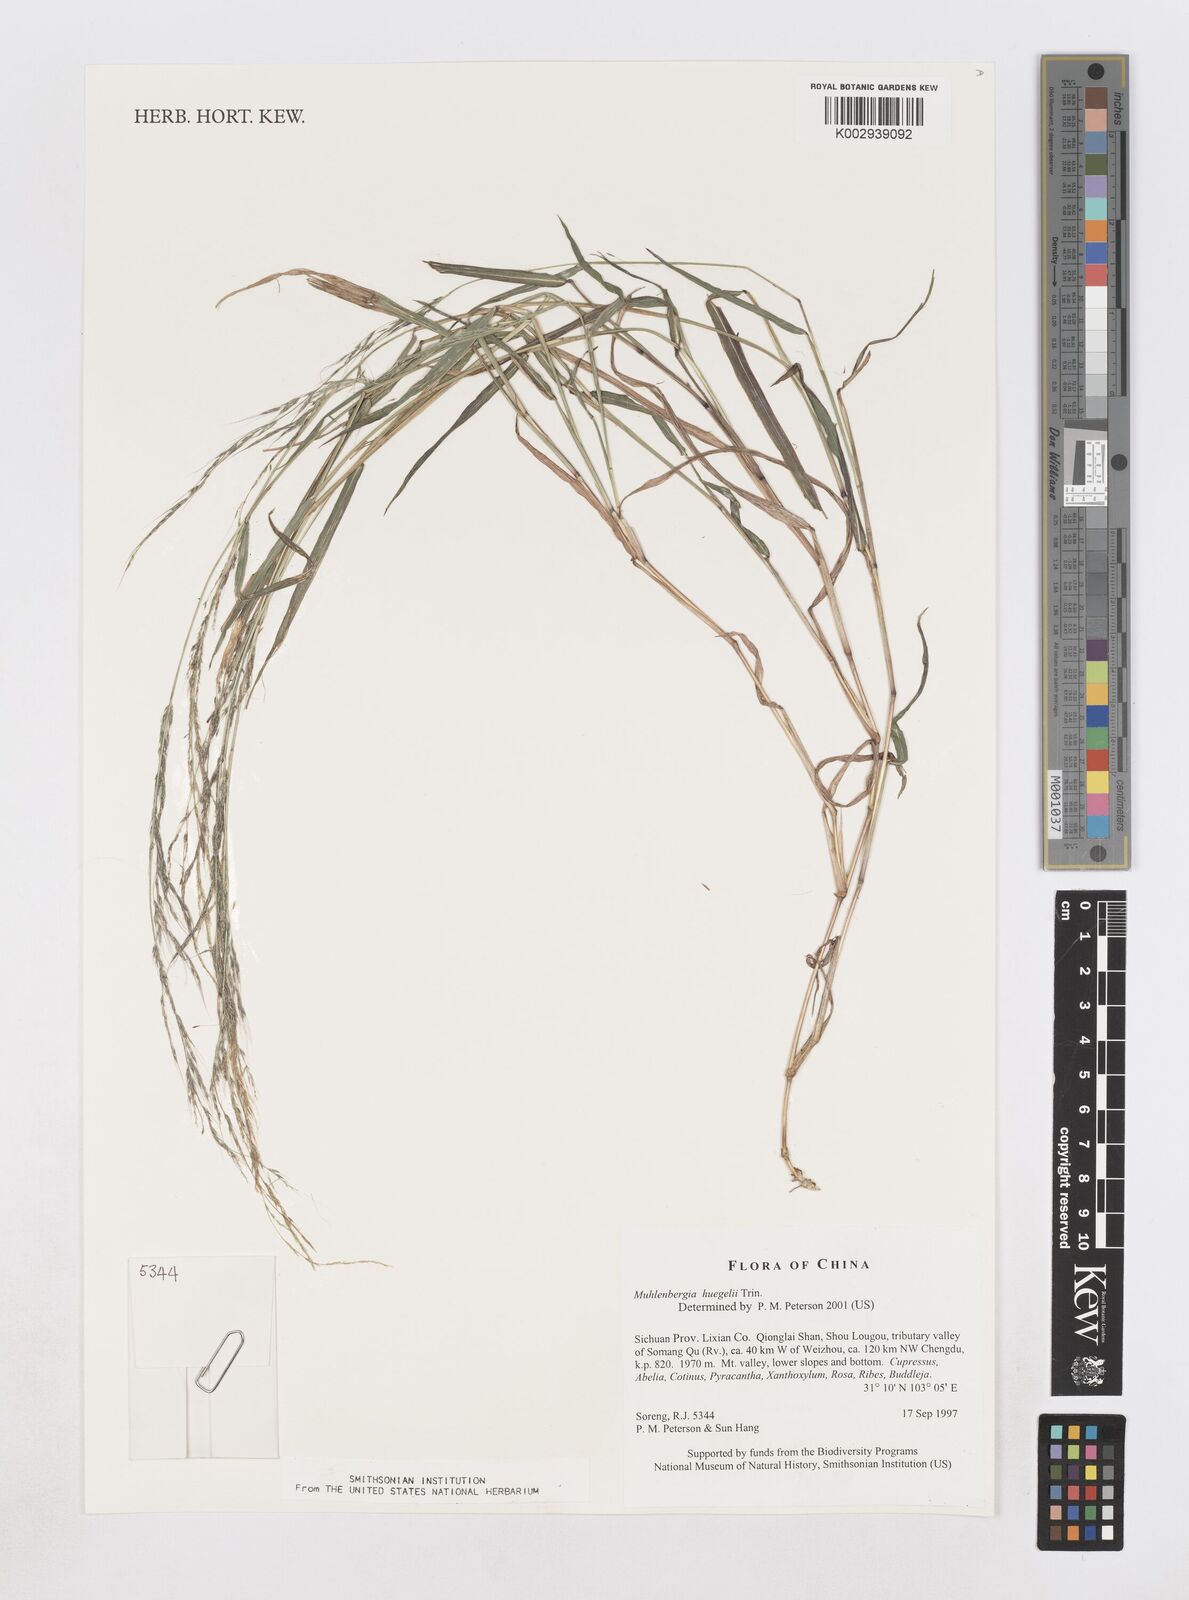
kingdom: Plantae
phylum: Tracheophyta
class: Liliopsida
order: Poales
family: Poaceae
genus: Muhlenbergia
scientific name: Muhlenbergia huegelii
